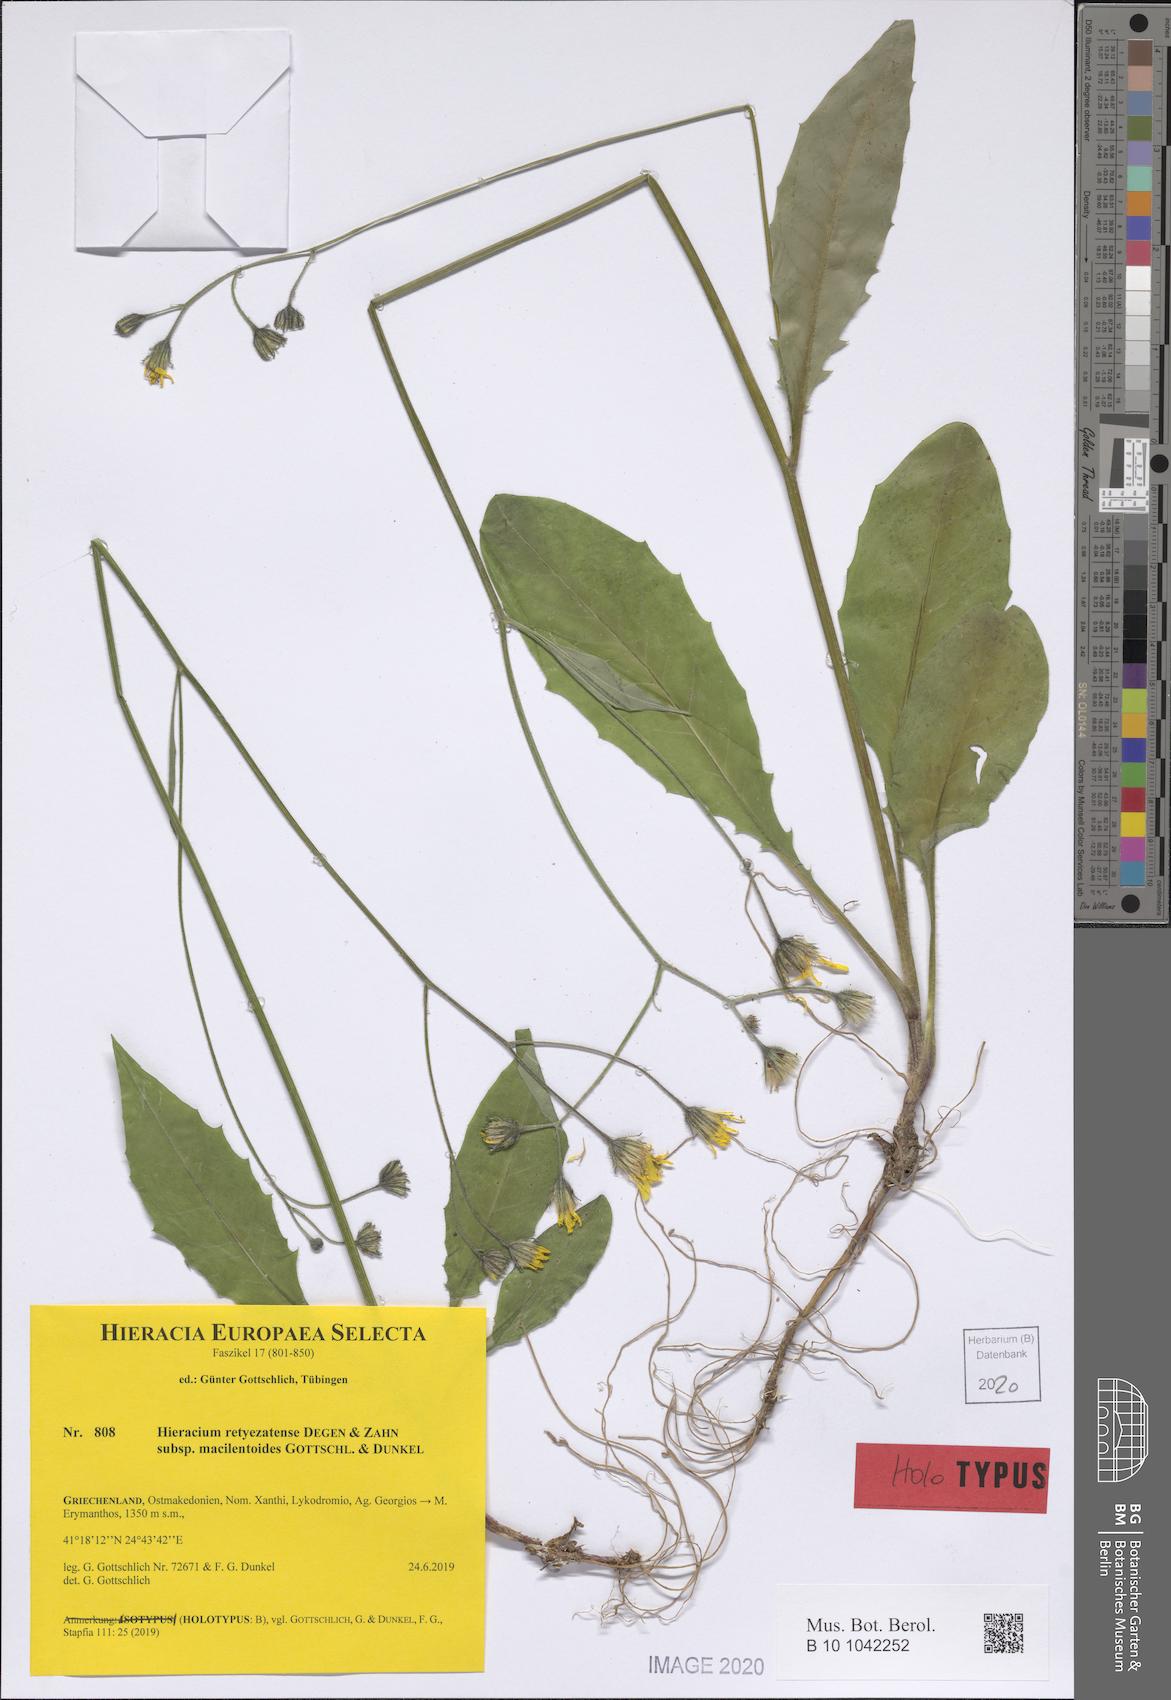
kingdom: Plantae
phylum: Tracheophyta
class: Magnoliopsida
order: Asterales
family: Asteraceae
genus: Hieracium
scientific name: Hieracium retyezatense
